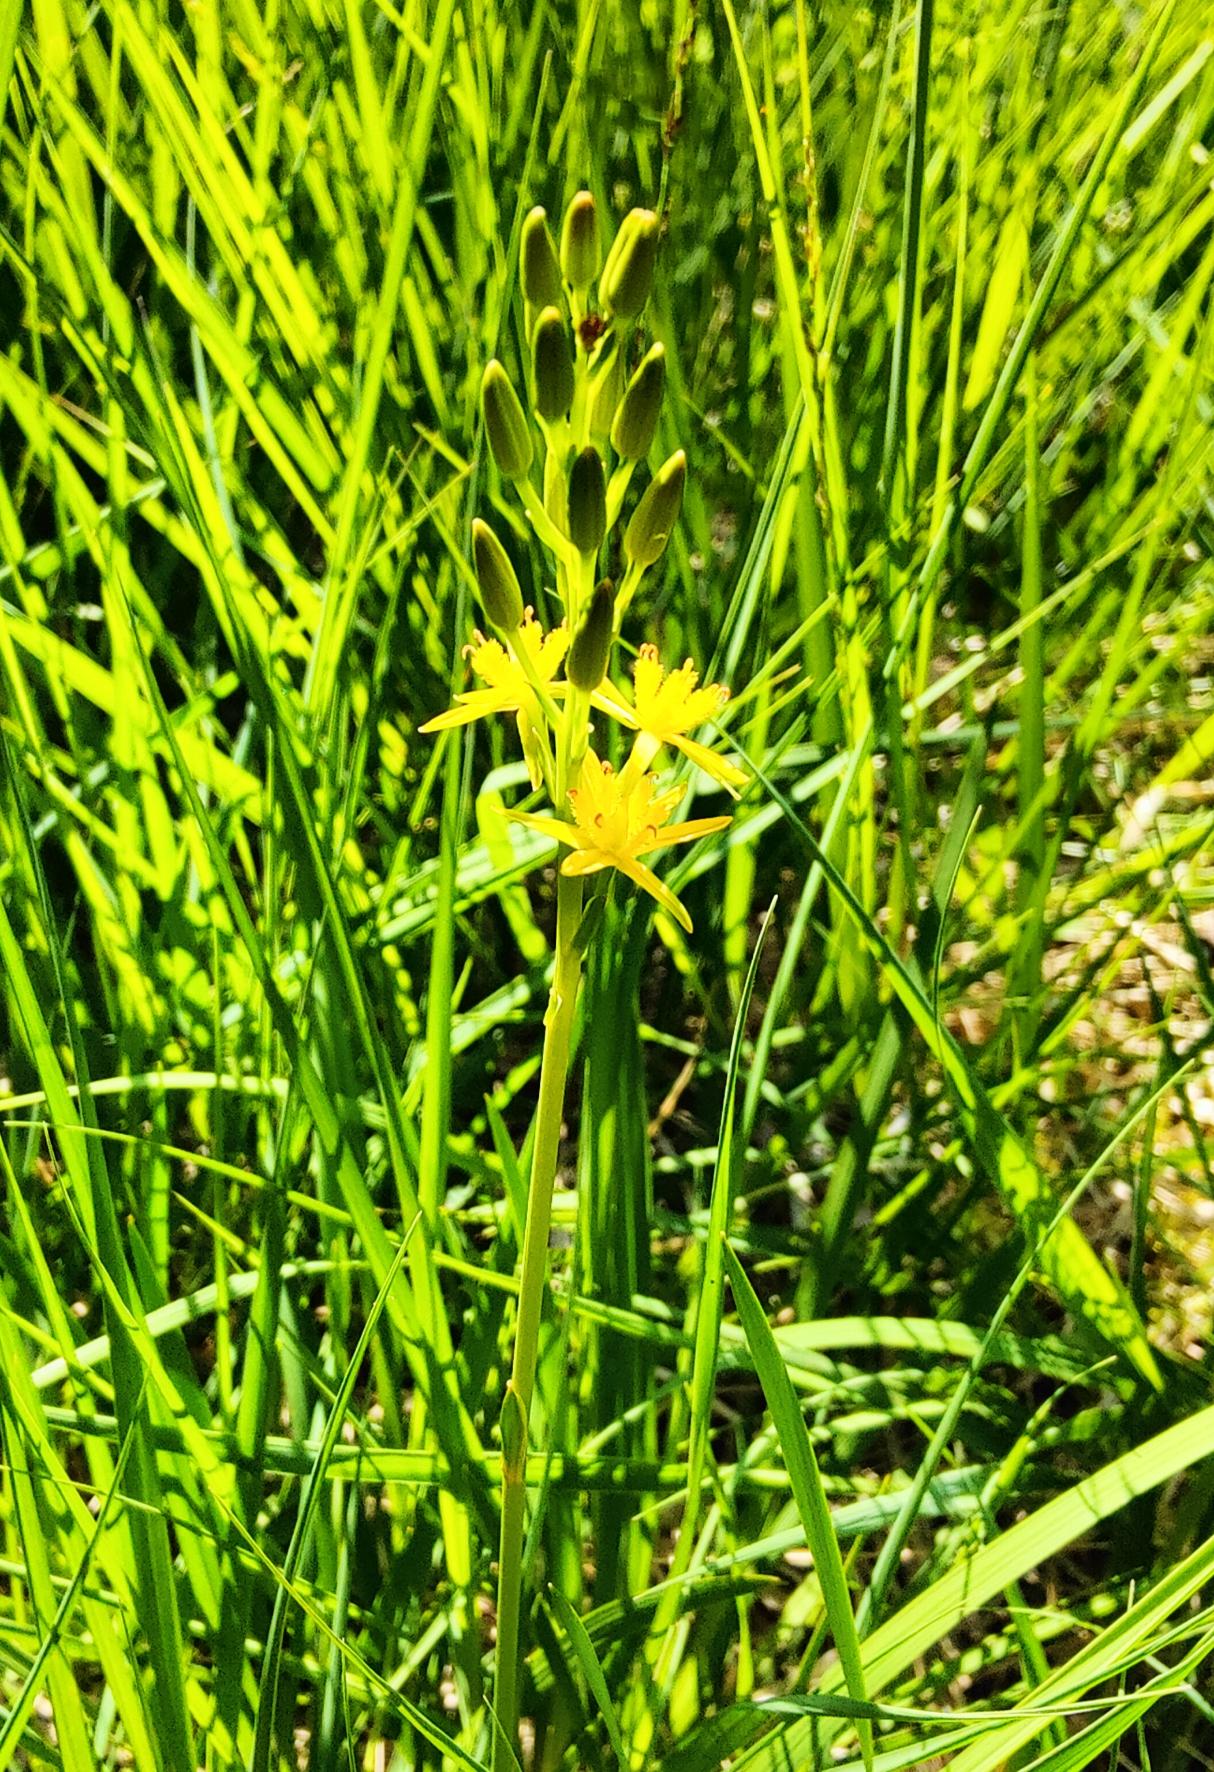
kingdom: Plantae
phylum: Tracheophyta
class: Liliopsida
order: Dioscoreales
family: Nartheciaceae
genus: Narthecium
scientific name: Narthecium ossifragum
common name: Benbræk
